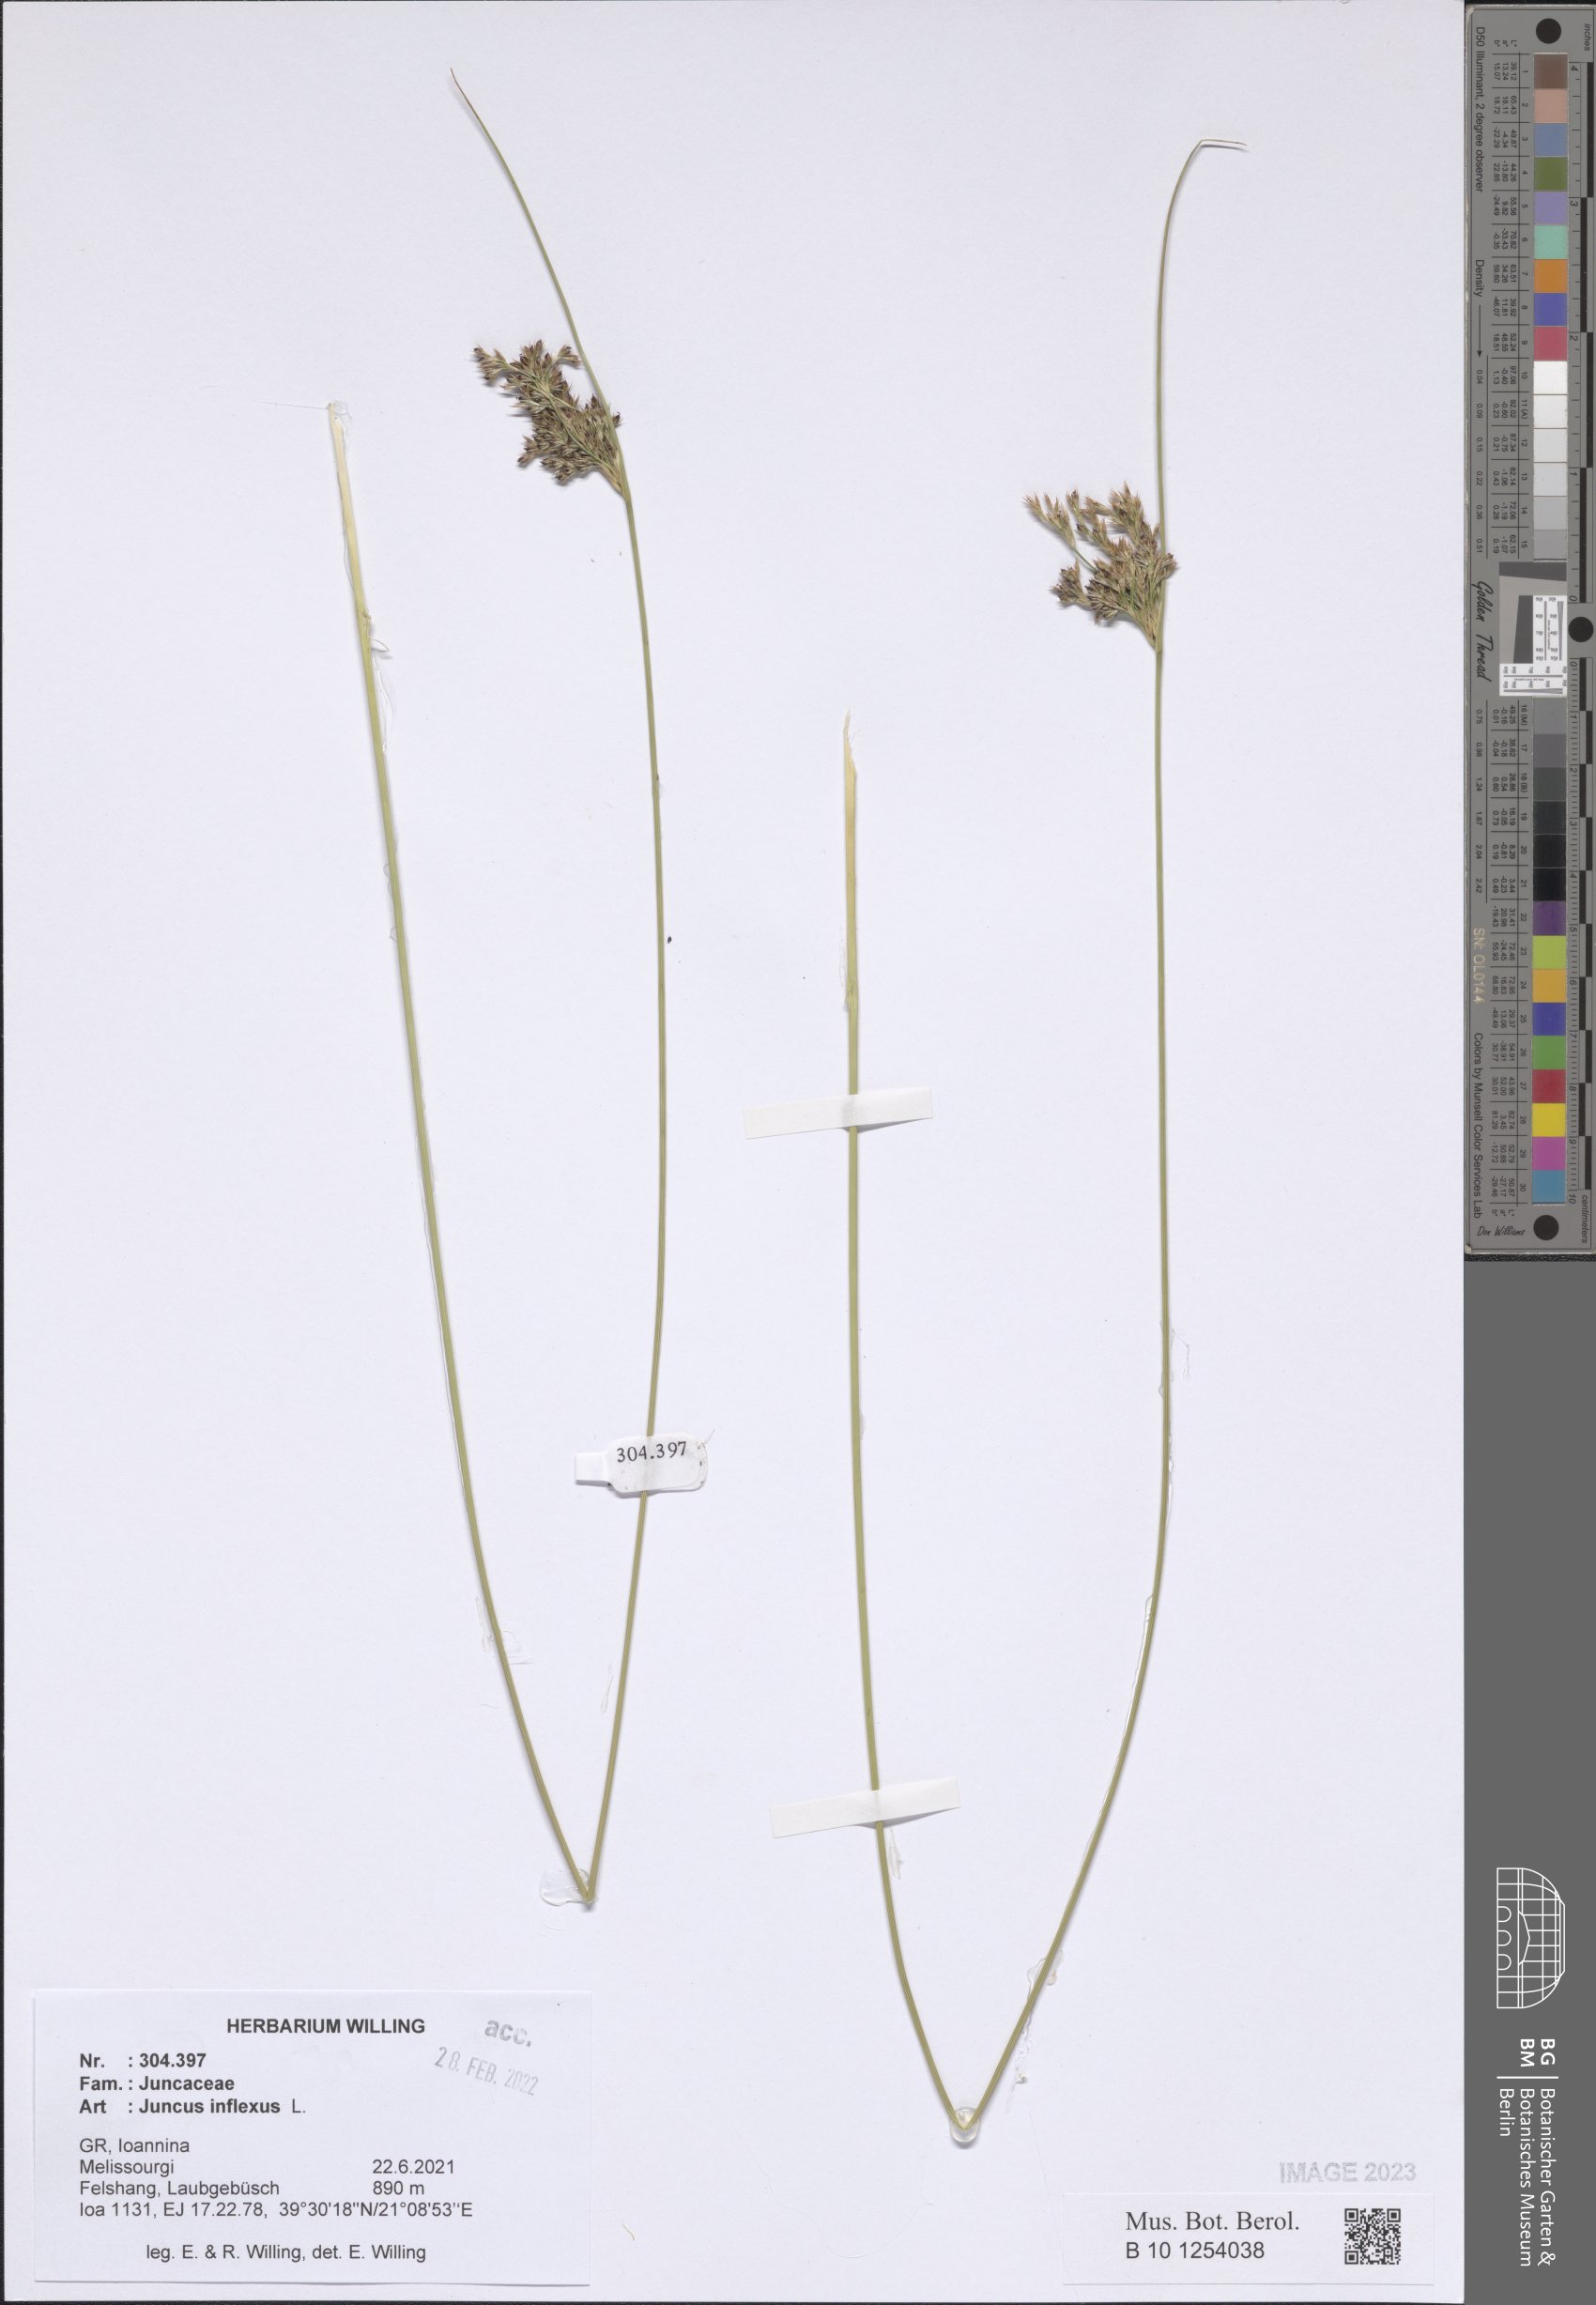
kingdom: Plantae
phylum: Tracheophyta
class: Liliopsida
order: Poales
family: Juncaceae
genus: Juncus
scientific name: Juncus inflexus
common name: Hard rush
